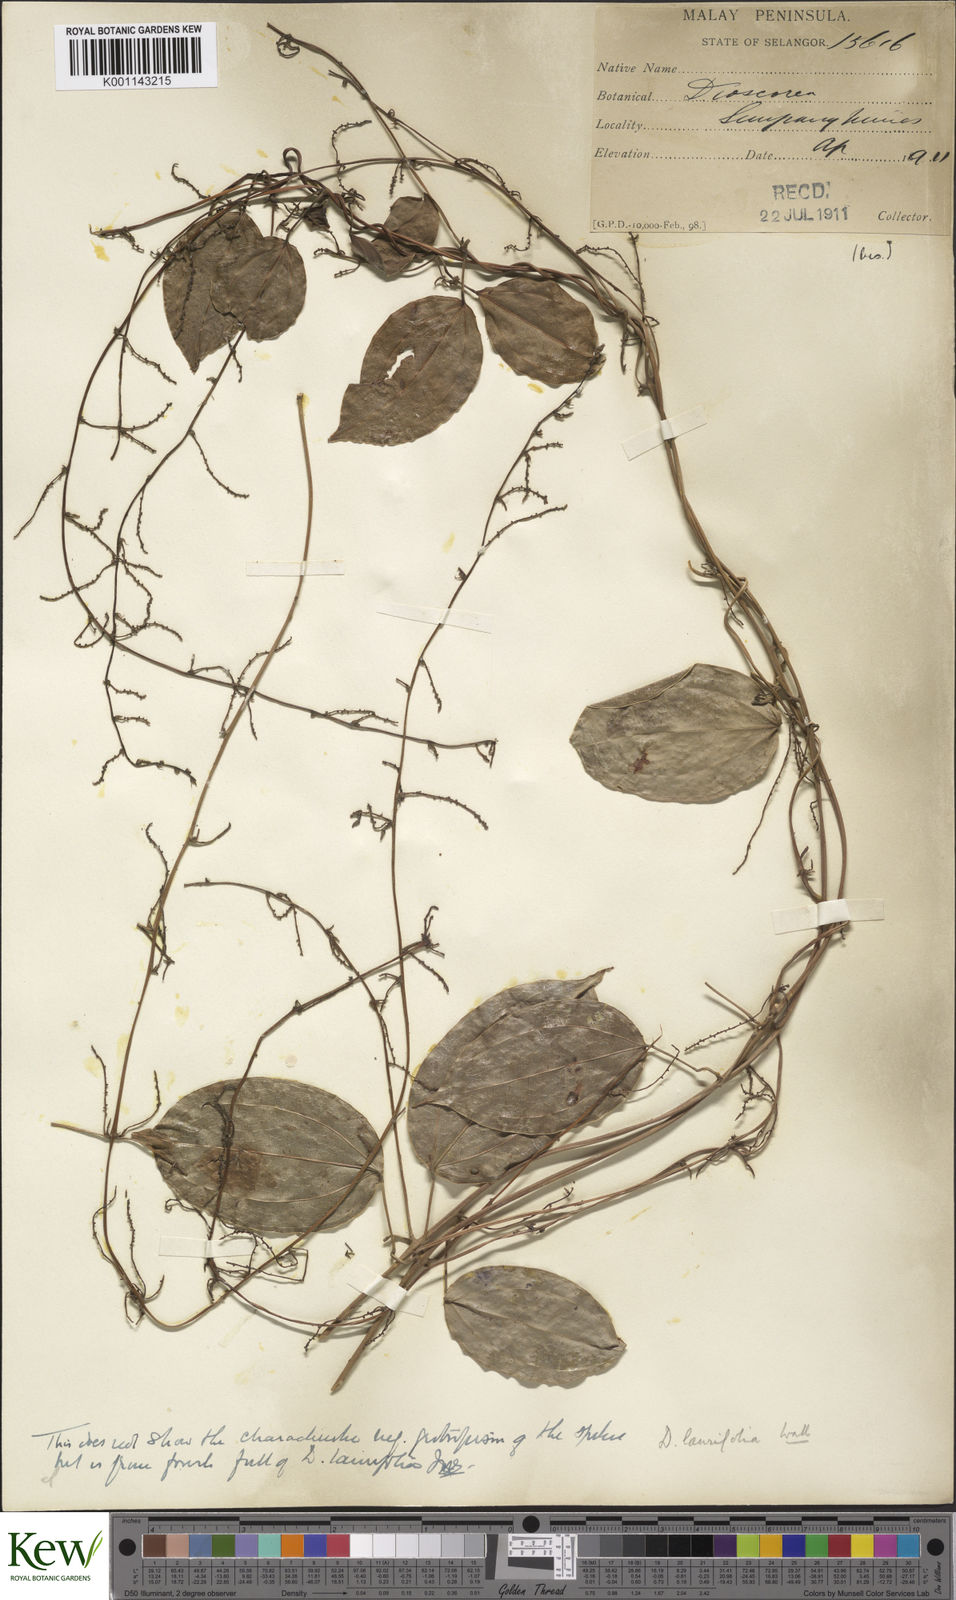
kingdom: Plantae
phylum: Tracheophyta
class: Liliopsida
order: Dioscoreales
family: Dioscoreaceae
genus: Dioscorea
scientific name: Dioscorea laurifolia
